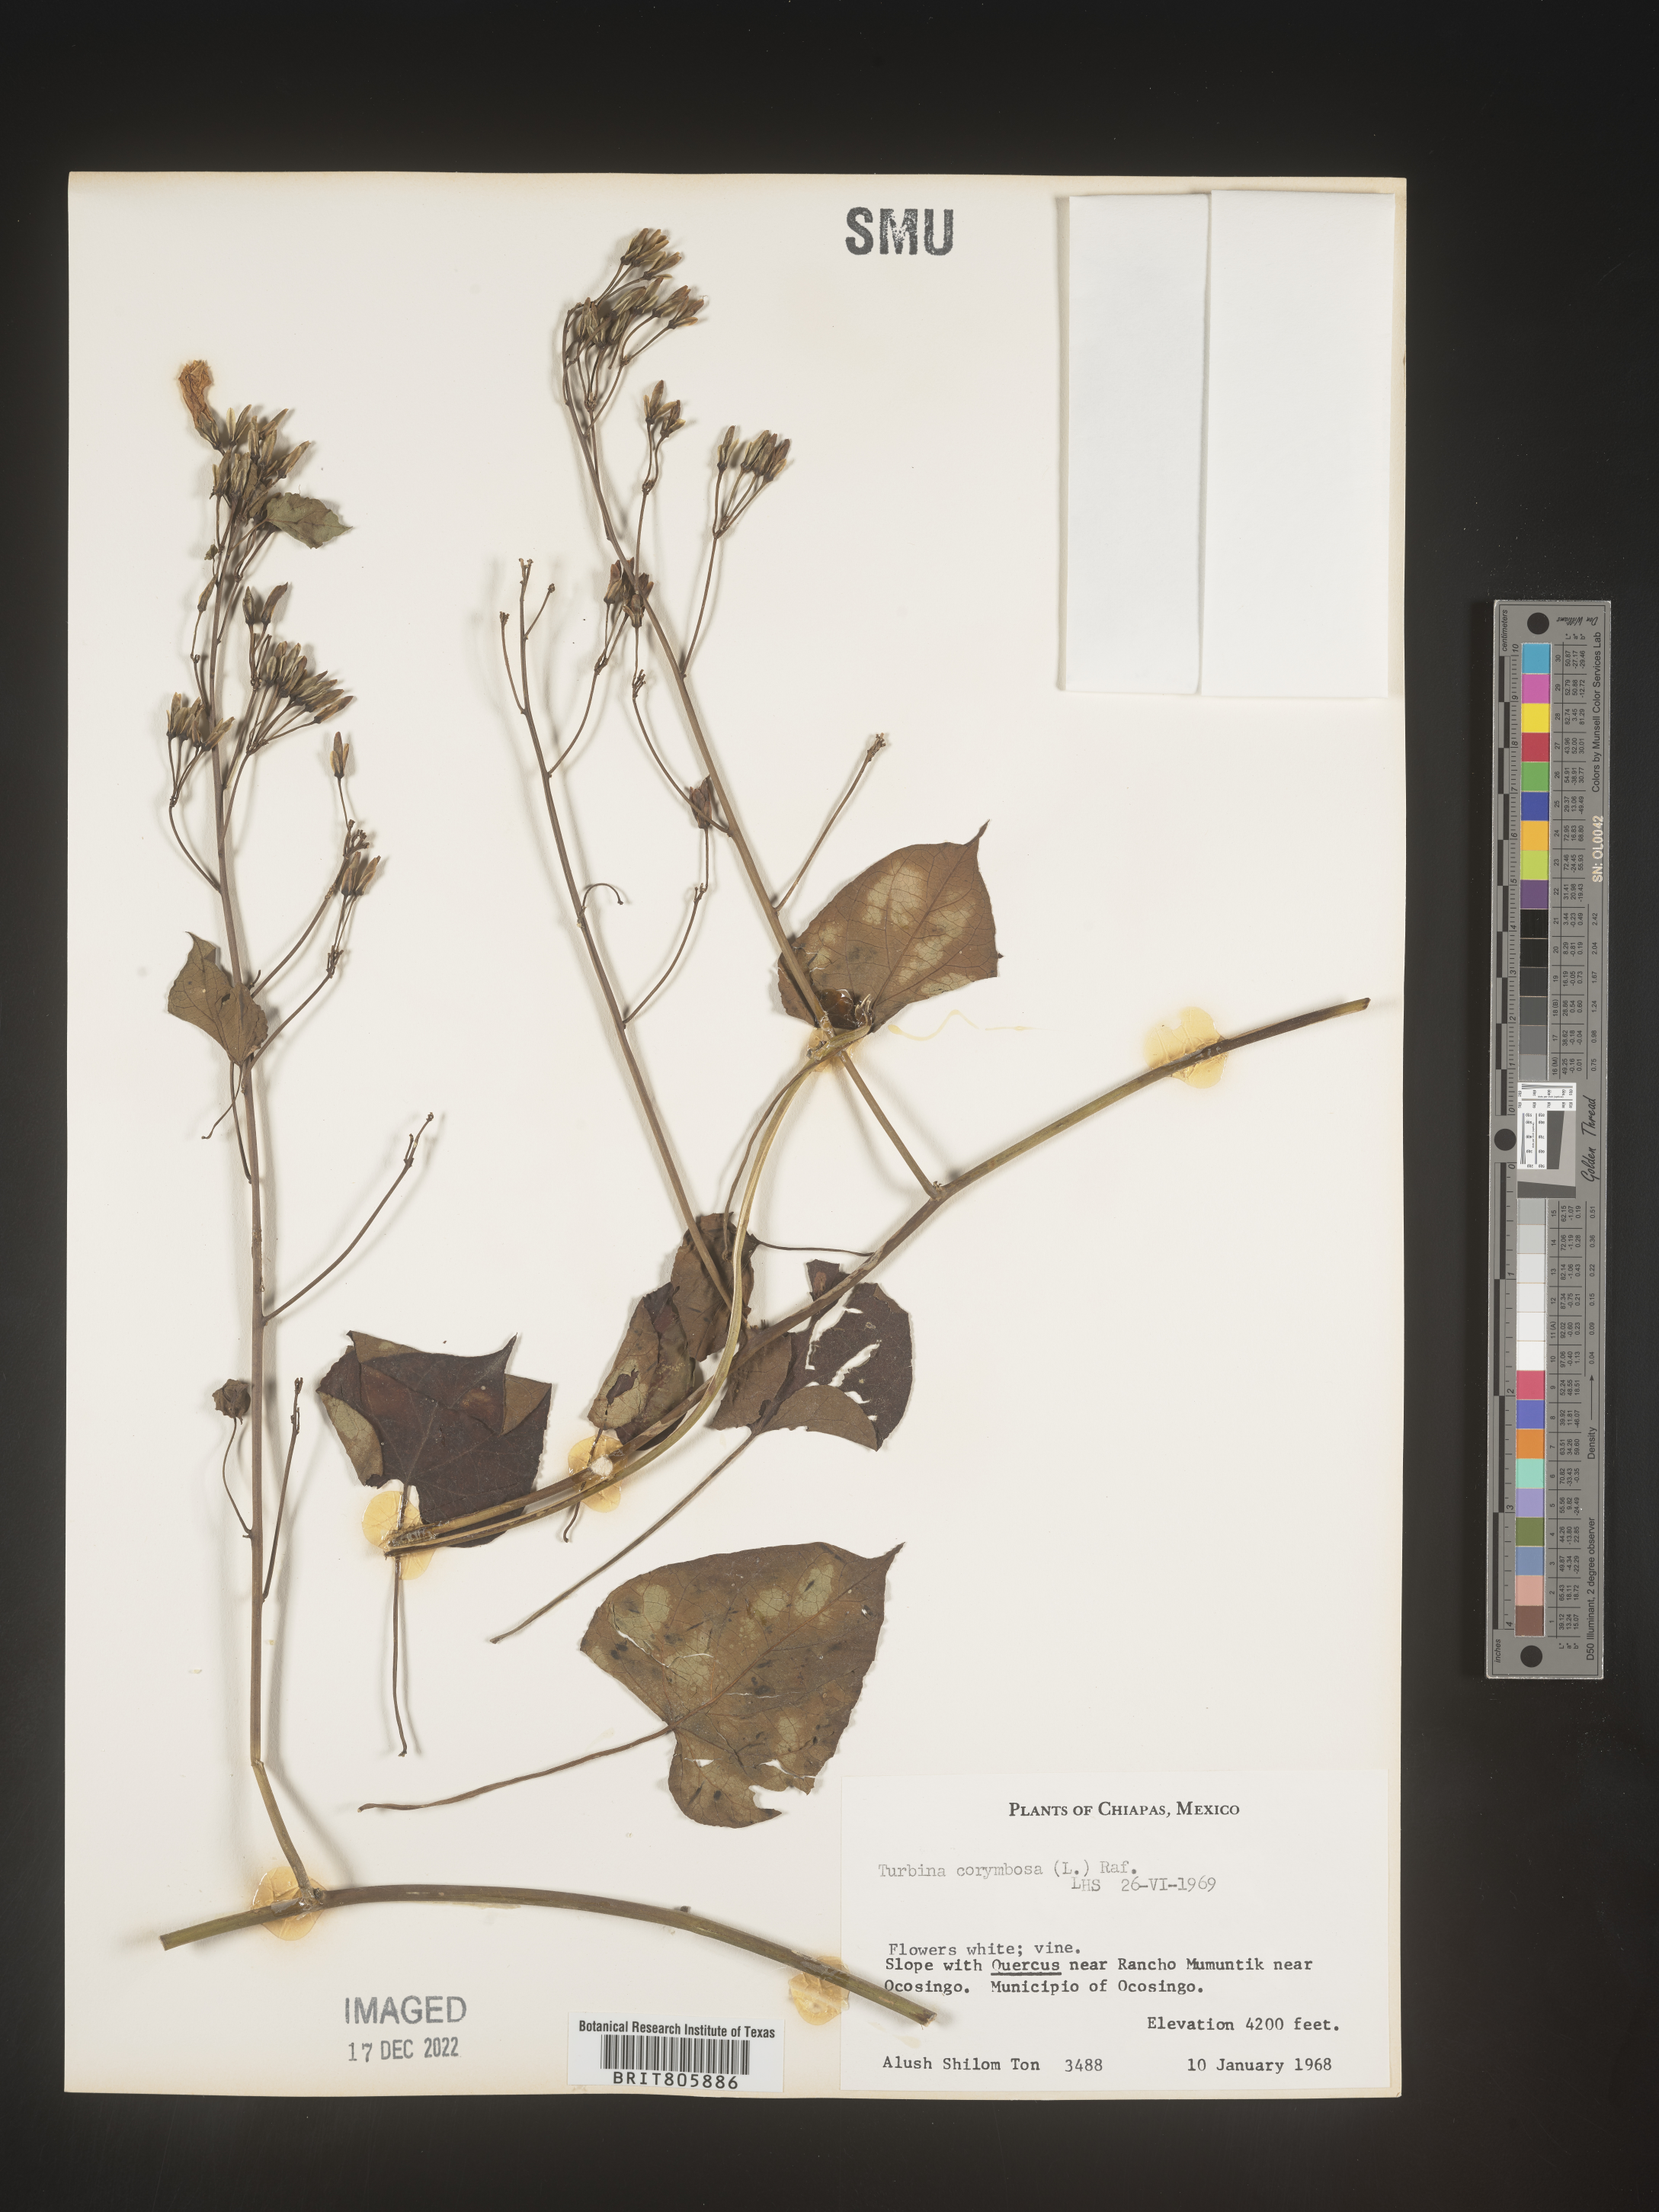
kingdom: Animalia
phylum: Mollusca
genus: Turbina
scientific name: Turbina
